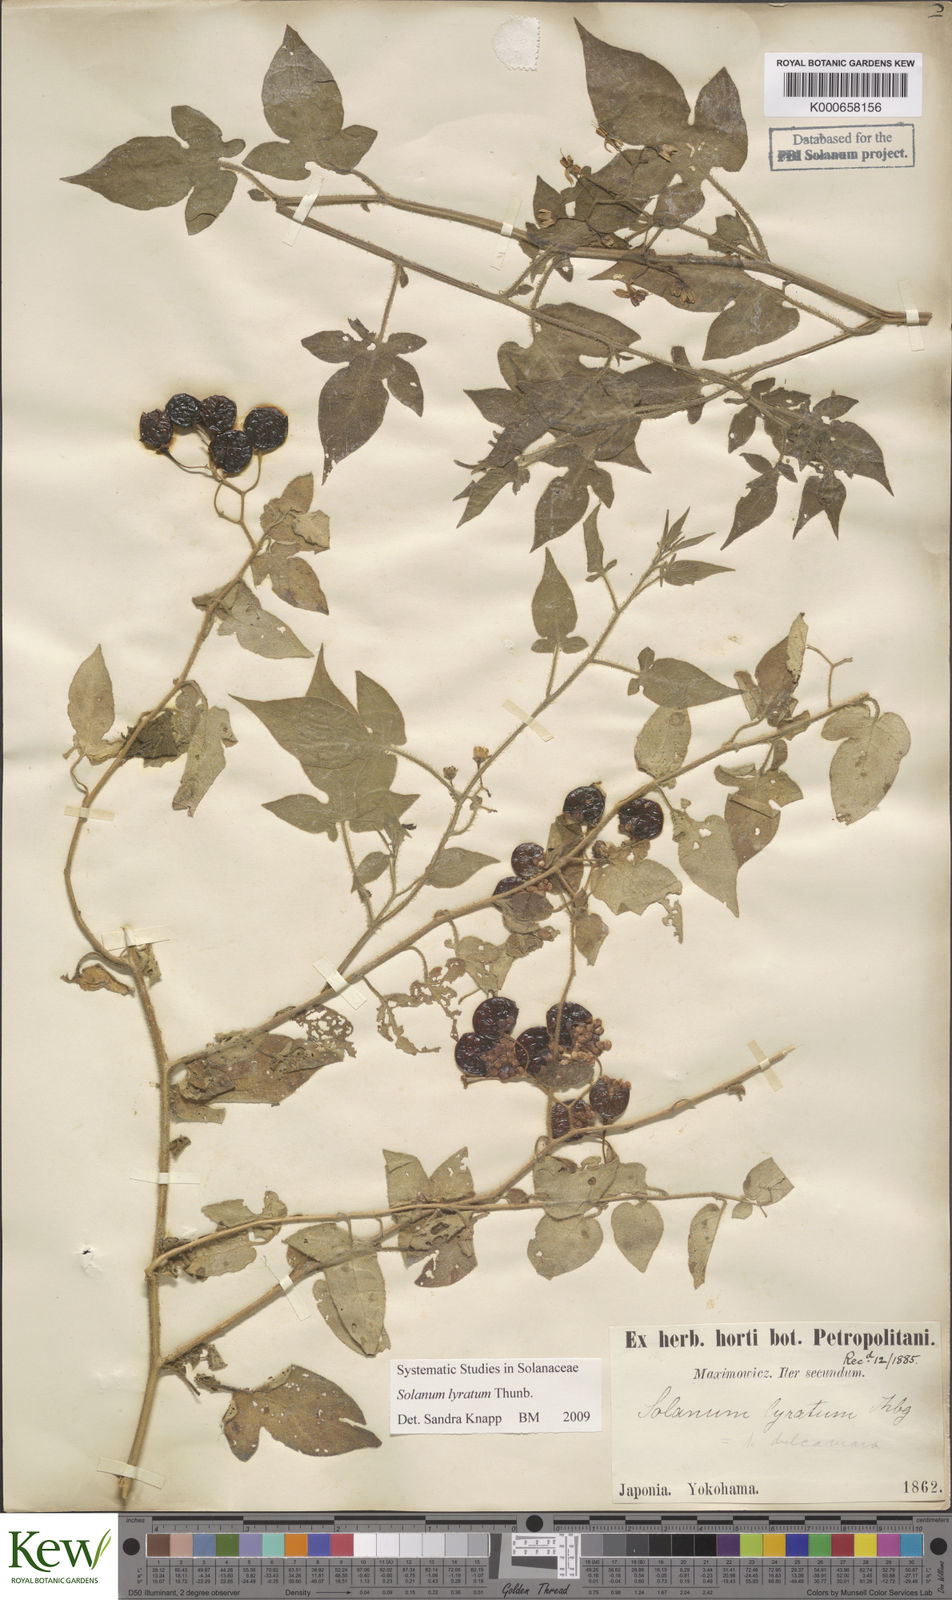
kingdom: Plantae
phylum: Tracheophyta
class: Magnoliopsida
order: Solanales
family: Solanaceae
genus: Solanum
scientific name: Solanum lyratum
